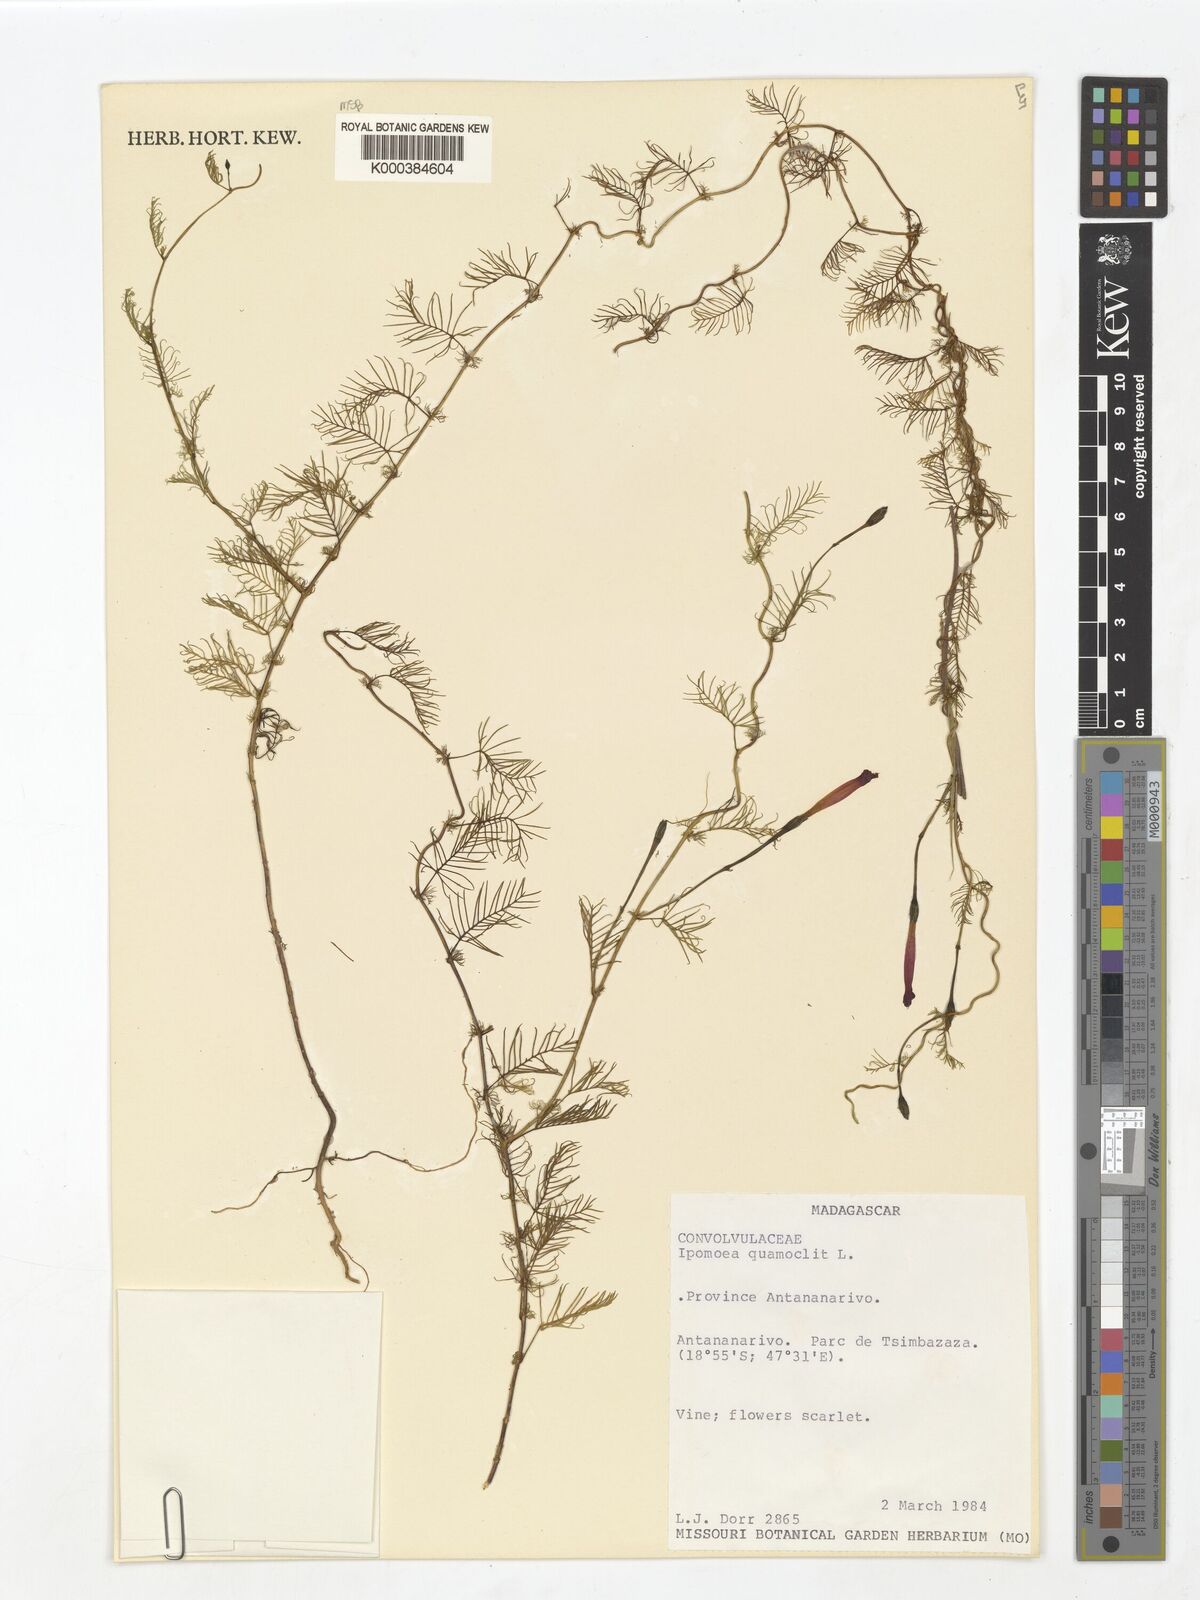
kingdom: Plantae
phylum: Tracheophyta
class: Magnoliopsida
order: Solanales
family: Convolvulaceae
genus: Ipomoea
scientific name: Ipomoea quamoclit
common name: Cypress vine
